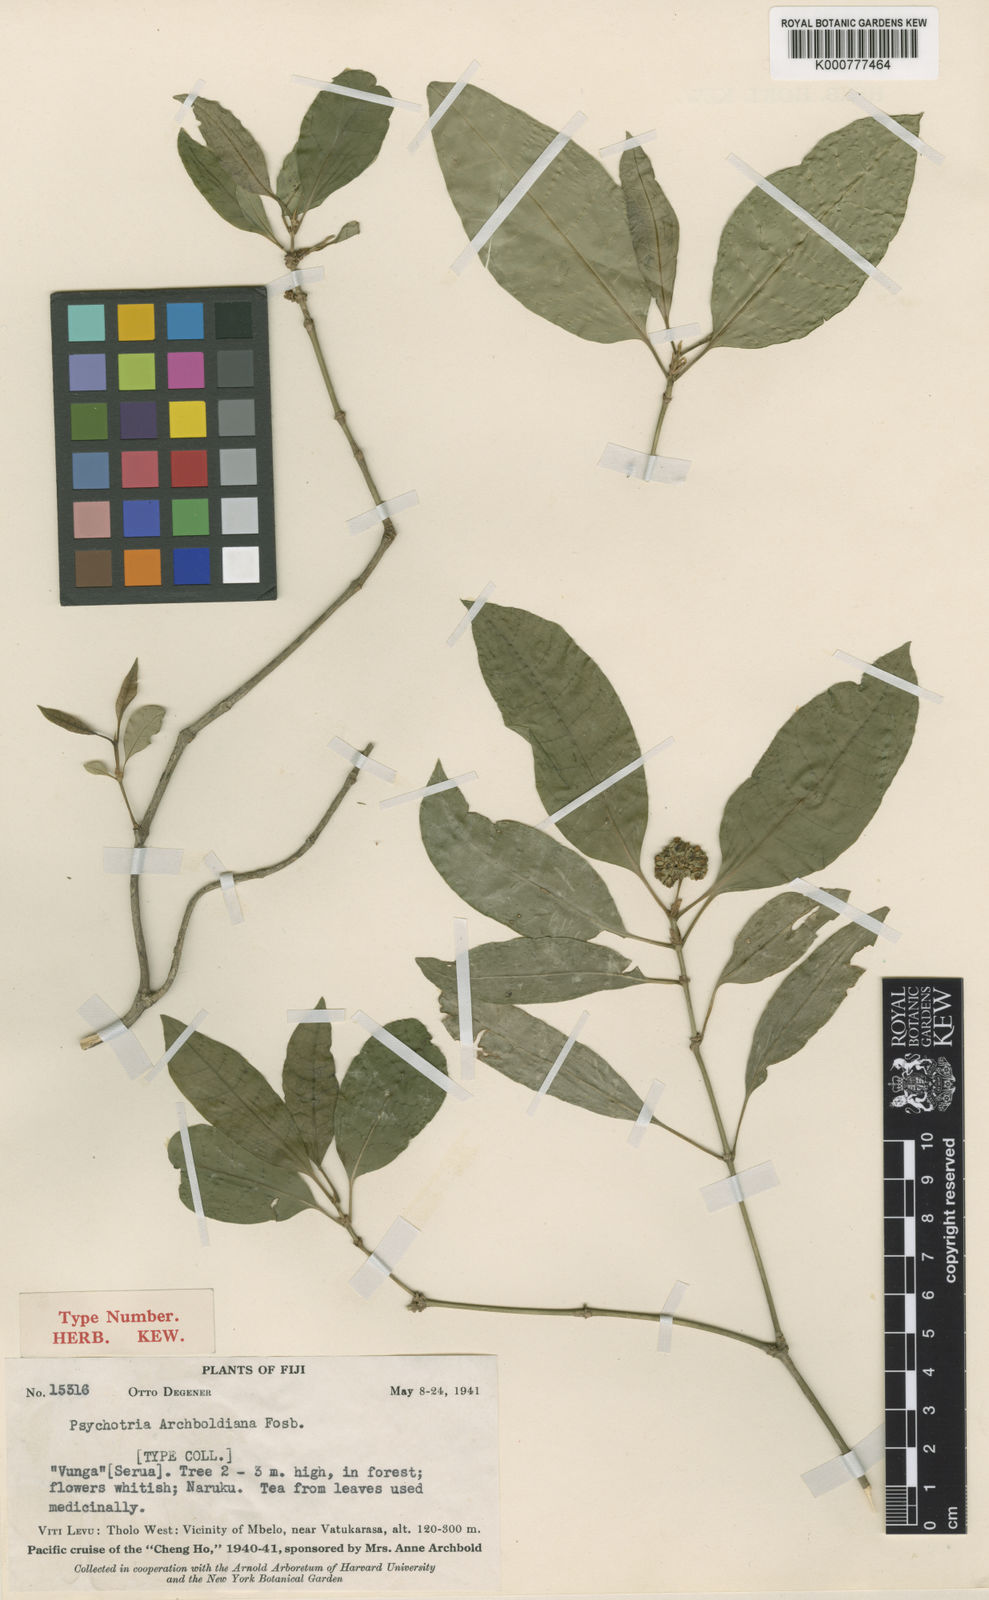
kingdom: Plantae
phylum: Tracheophyta
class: Magnoliopsida
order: Gentianales
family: Rubiaceae
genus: Eumachia
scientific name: Eumachia archboldiana
